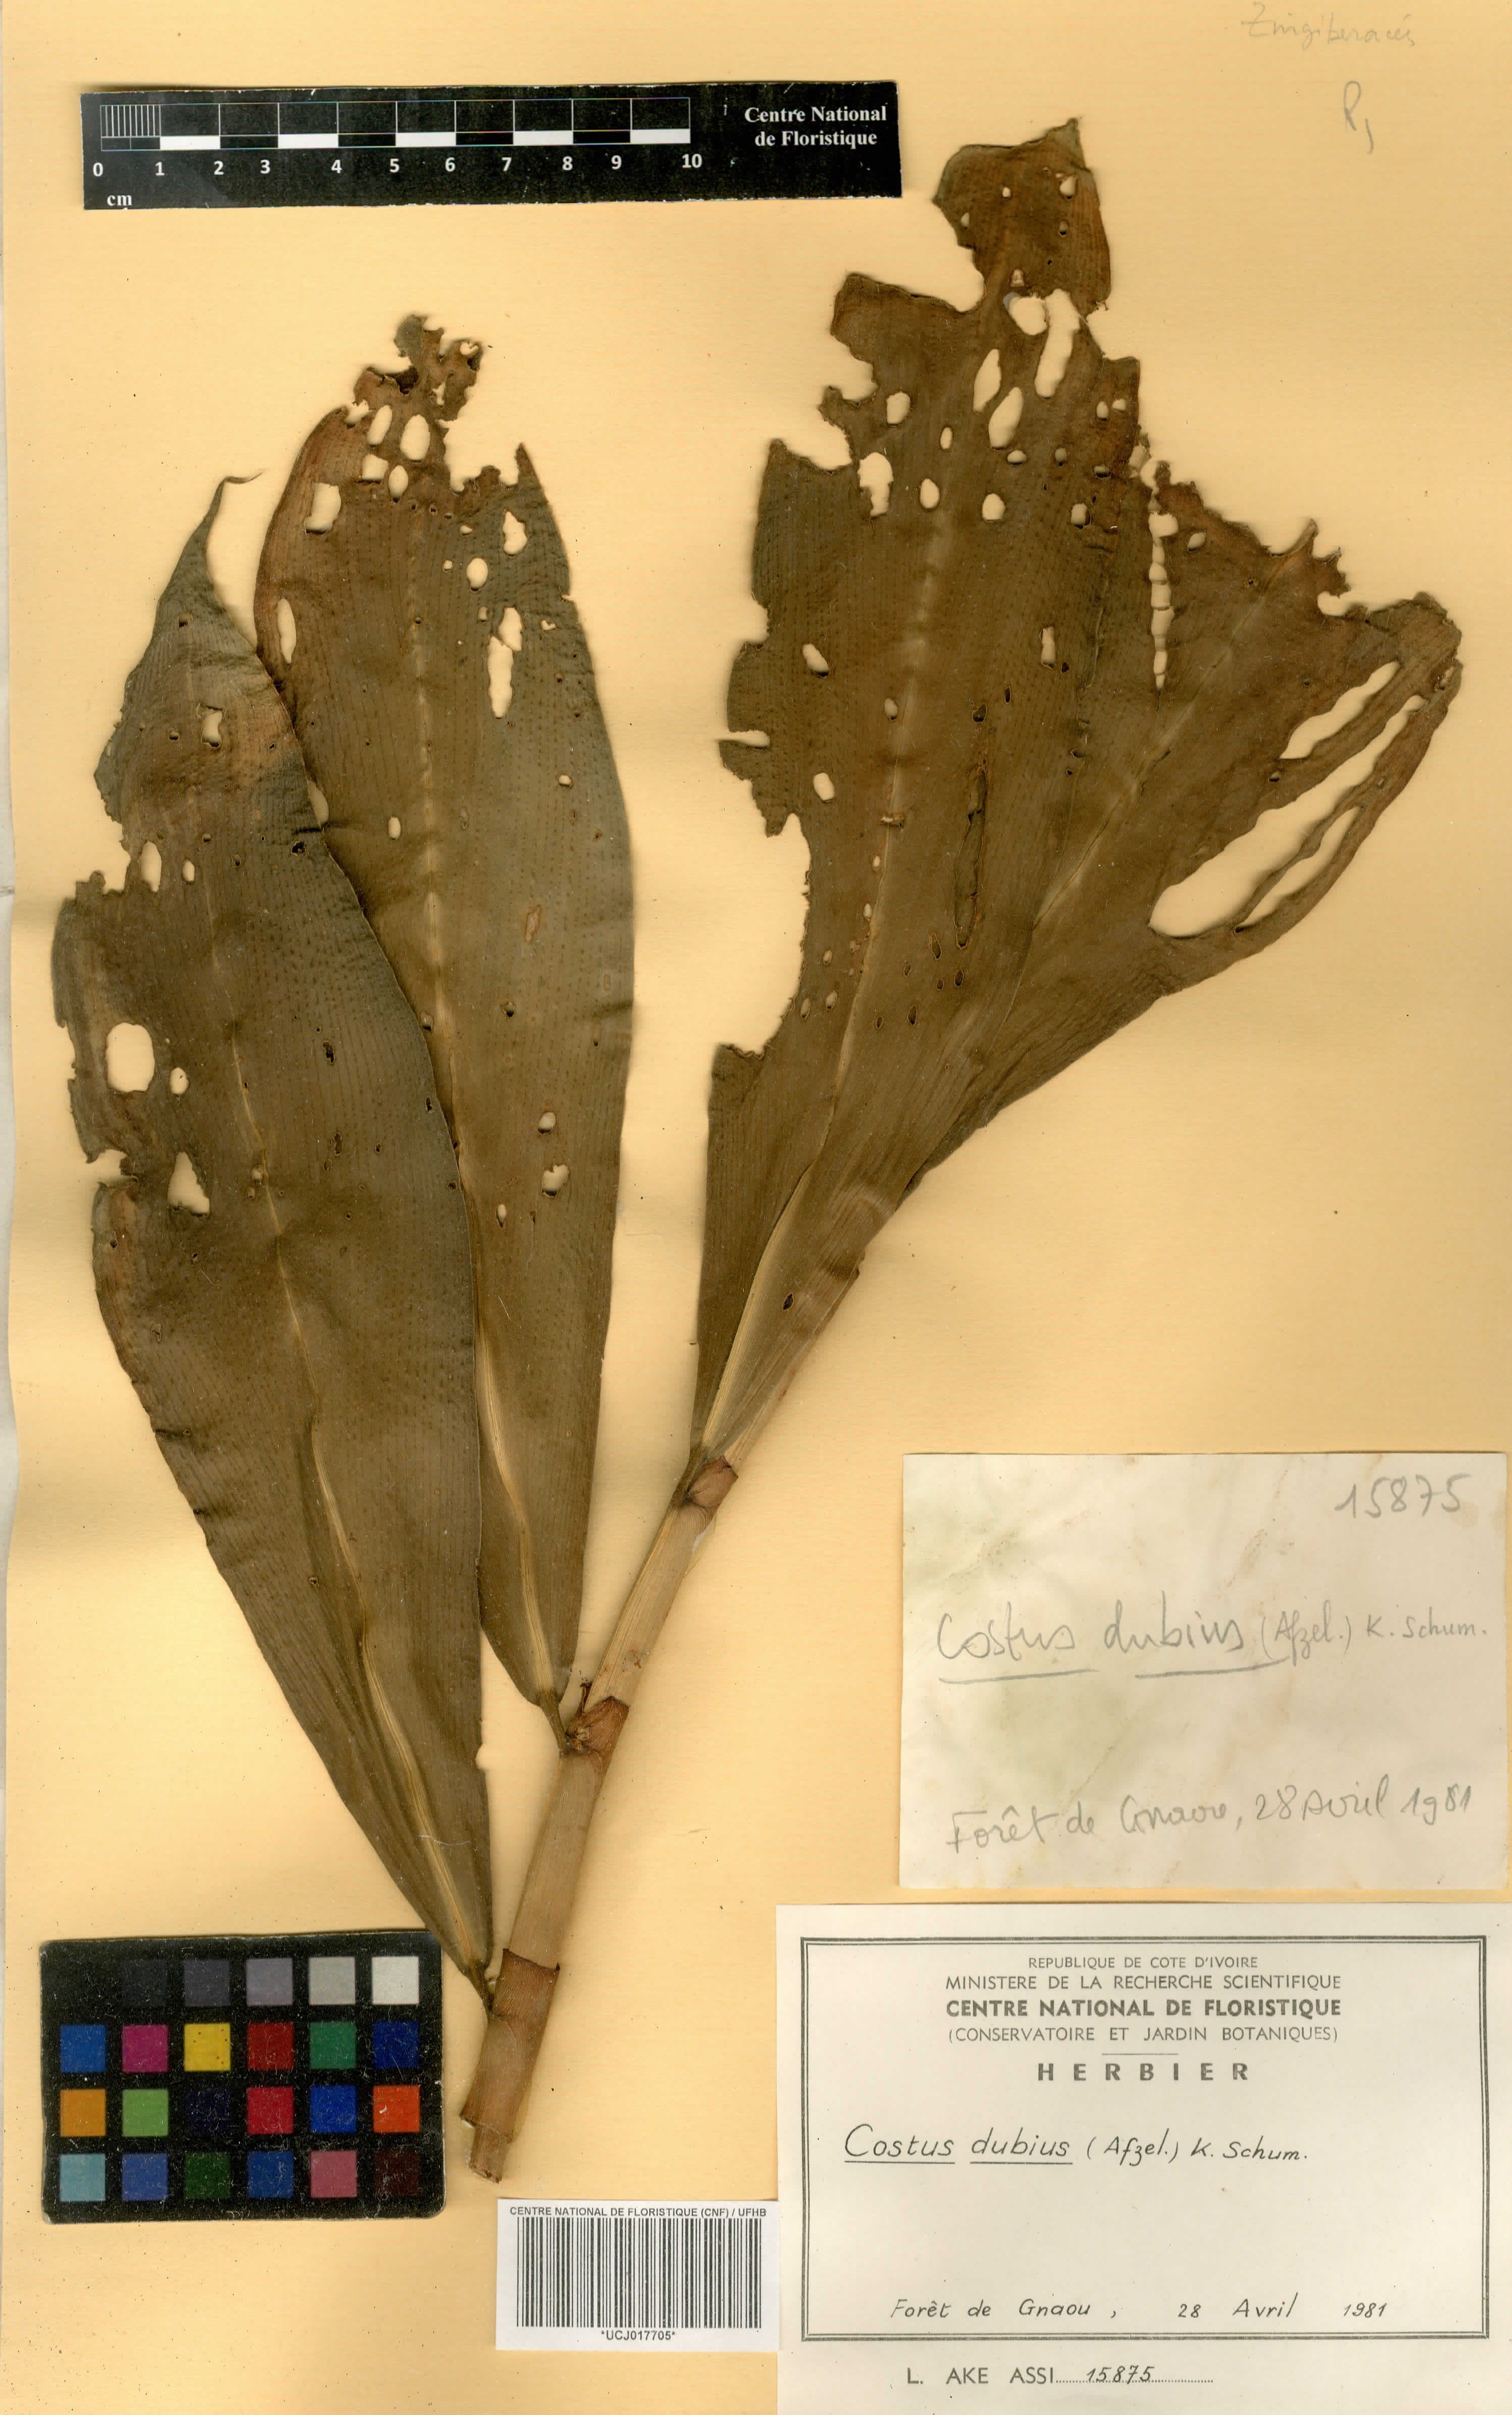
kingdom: Plantae
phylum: Tracheophyta
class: Liliopsida
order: Zingiberales
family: Costaceae
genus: Costus
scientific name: Costus dubius
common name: Costus
